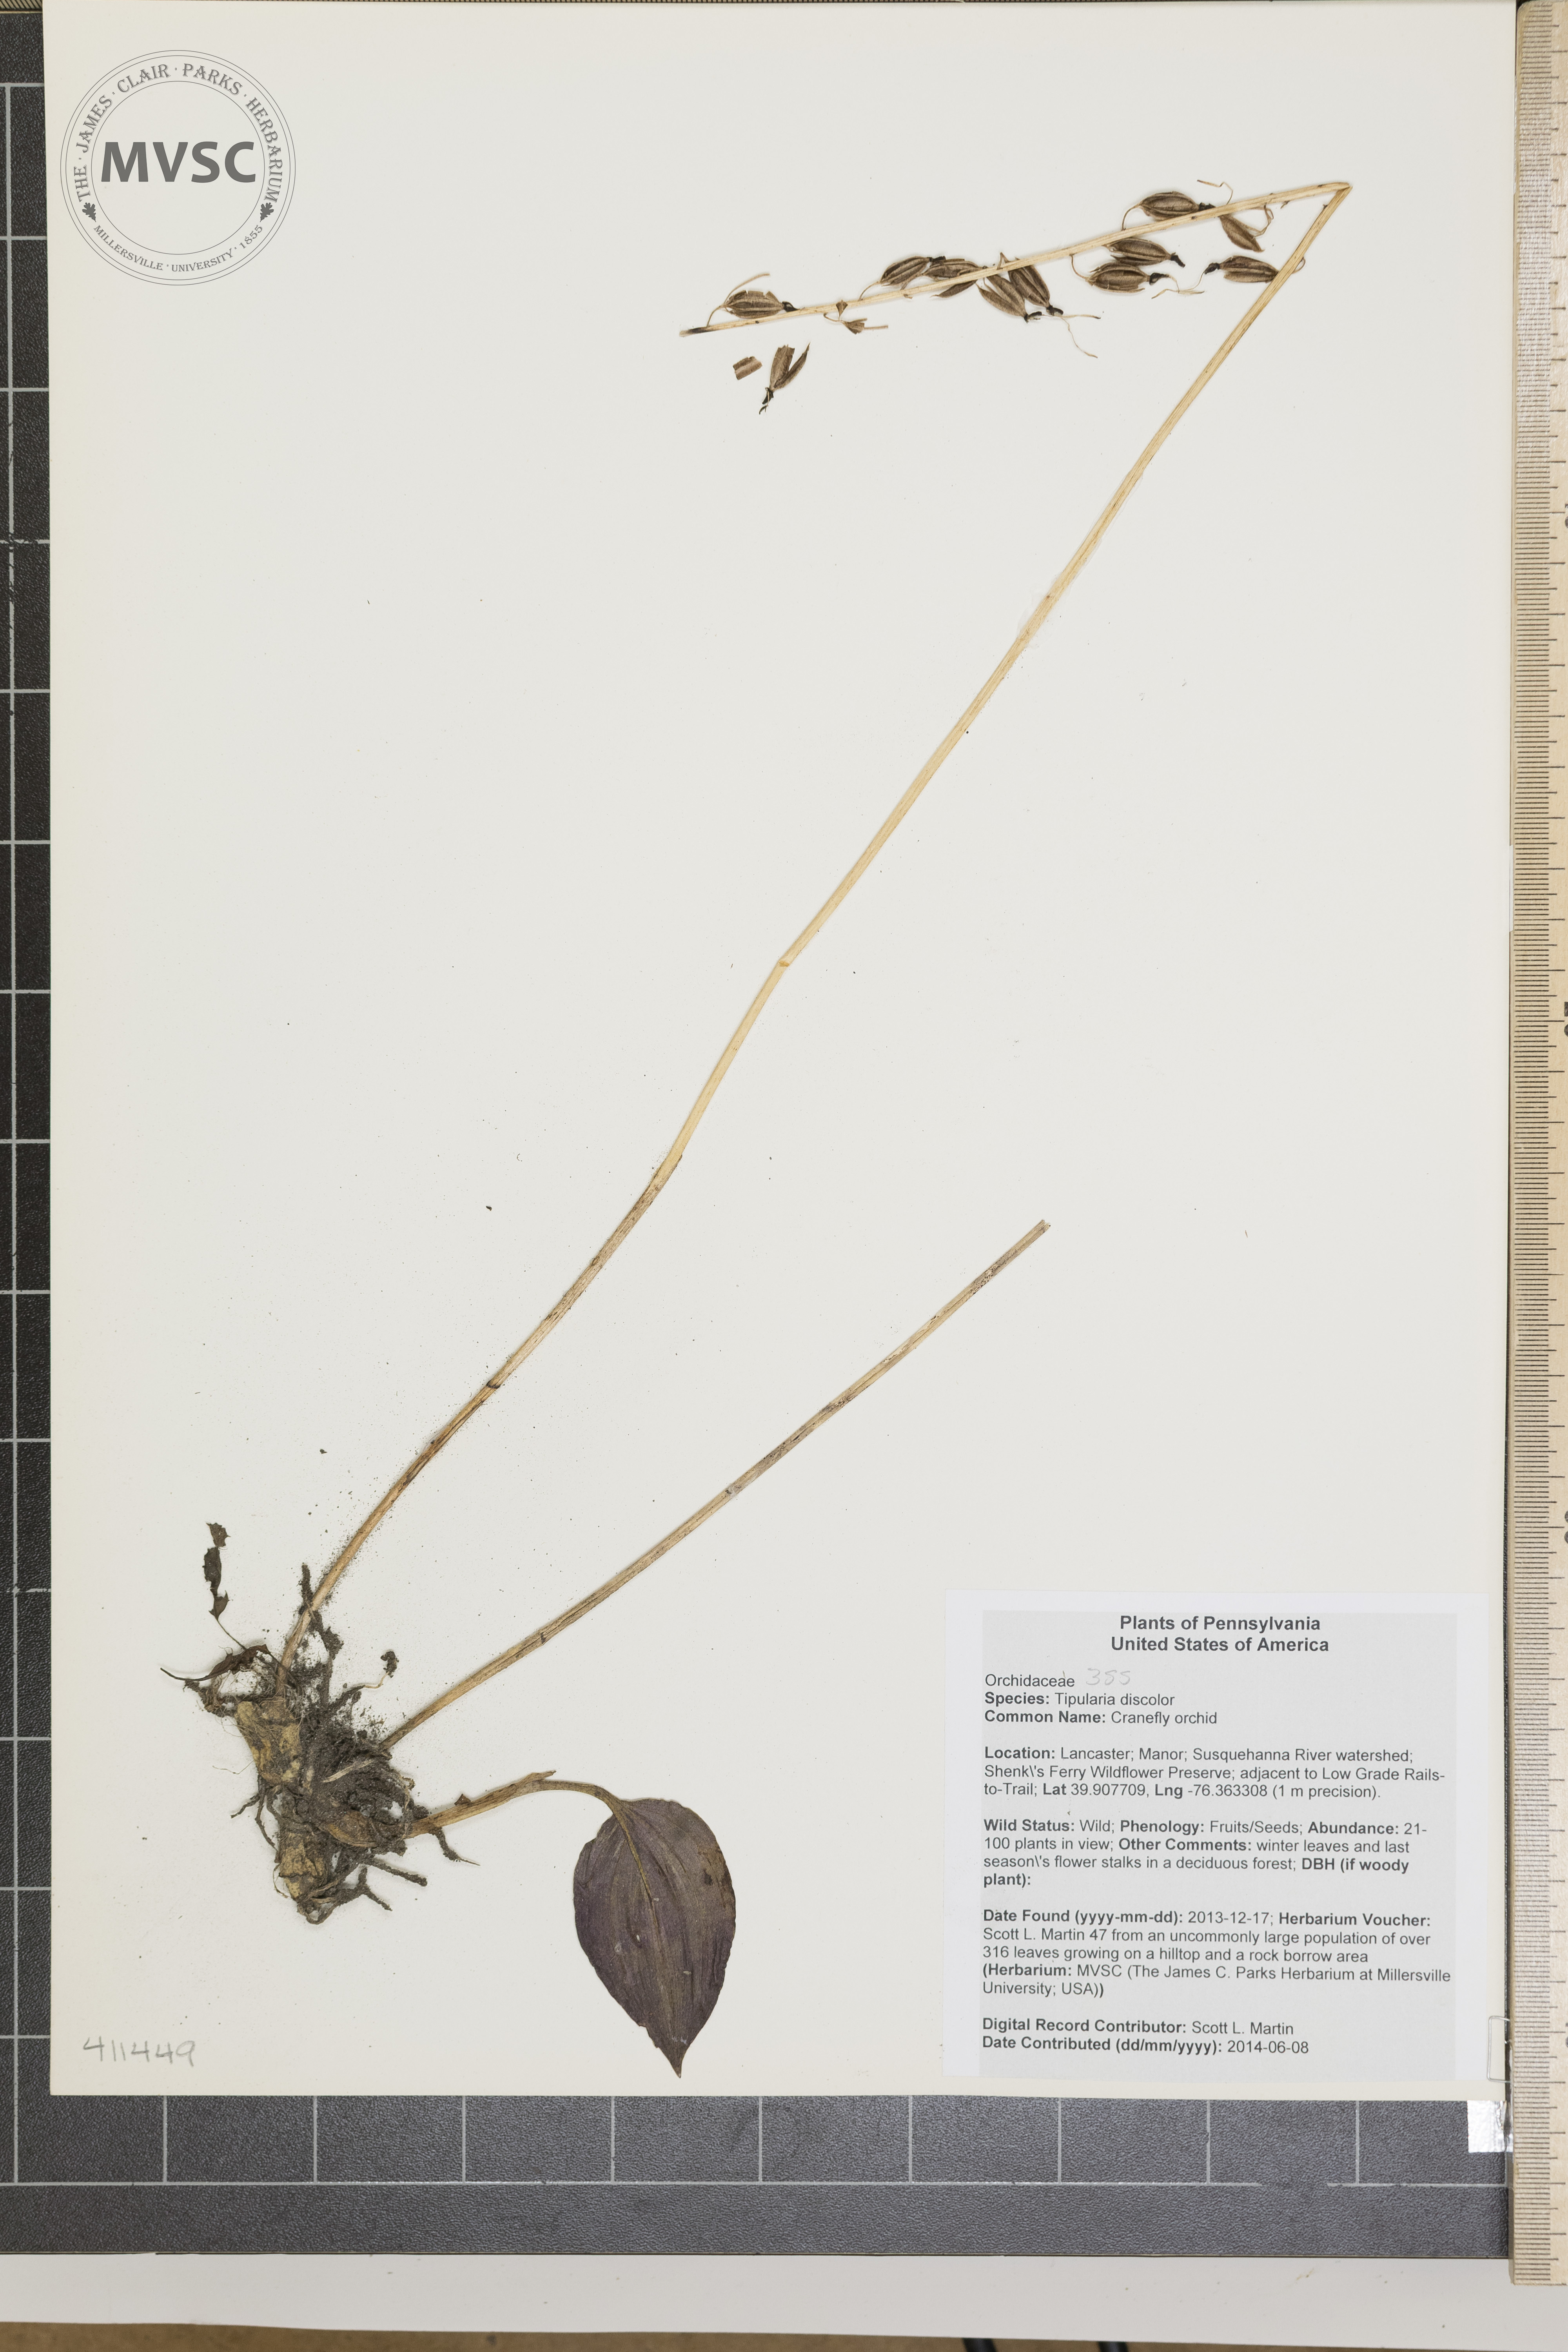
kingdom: Plantae
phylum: Tracheophyta
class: Liliopsida
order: Asparagales
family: Orchidaceae
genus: Tipularia
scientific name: Tipularia discolor
